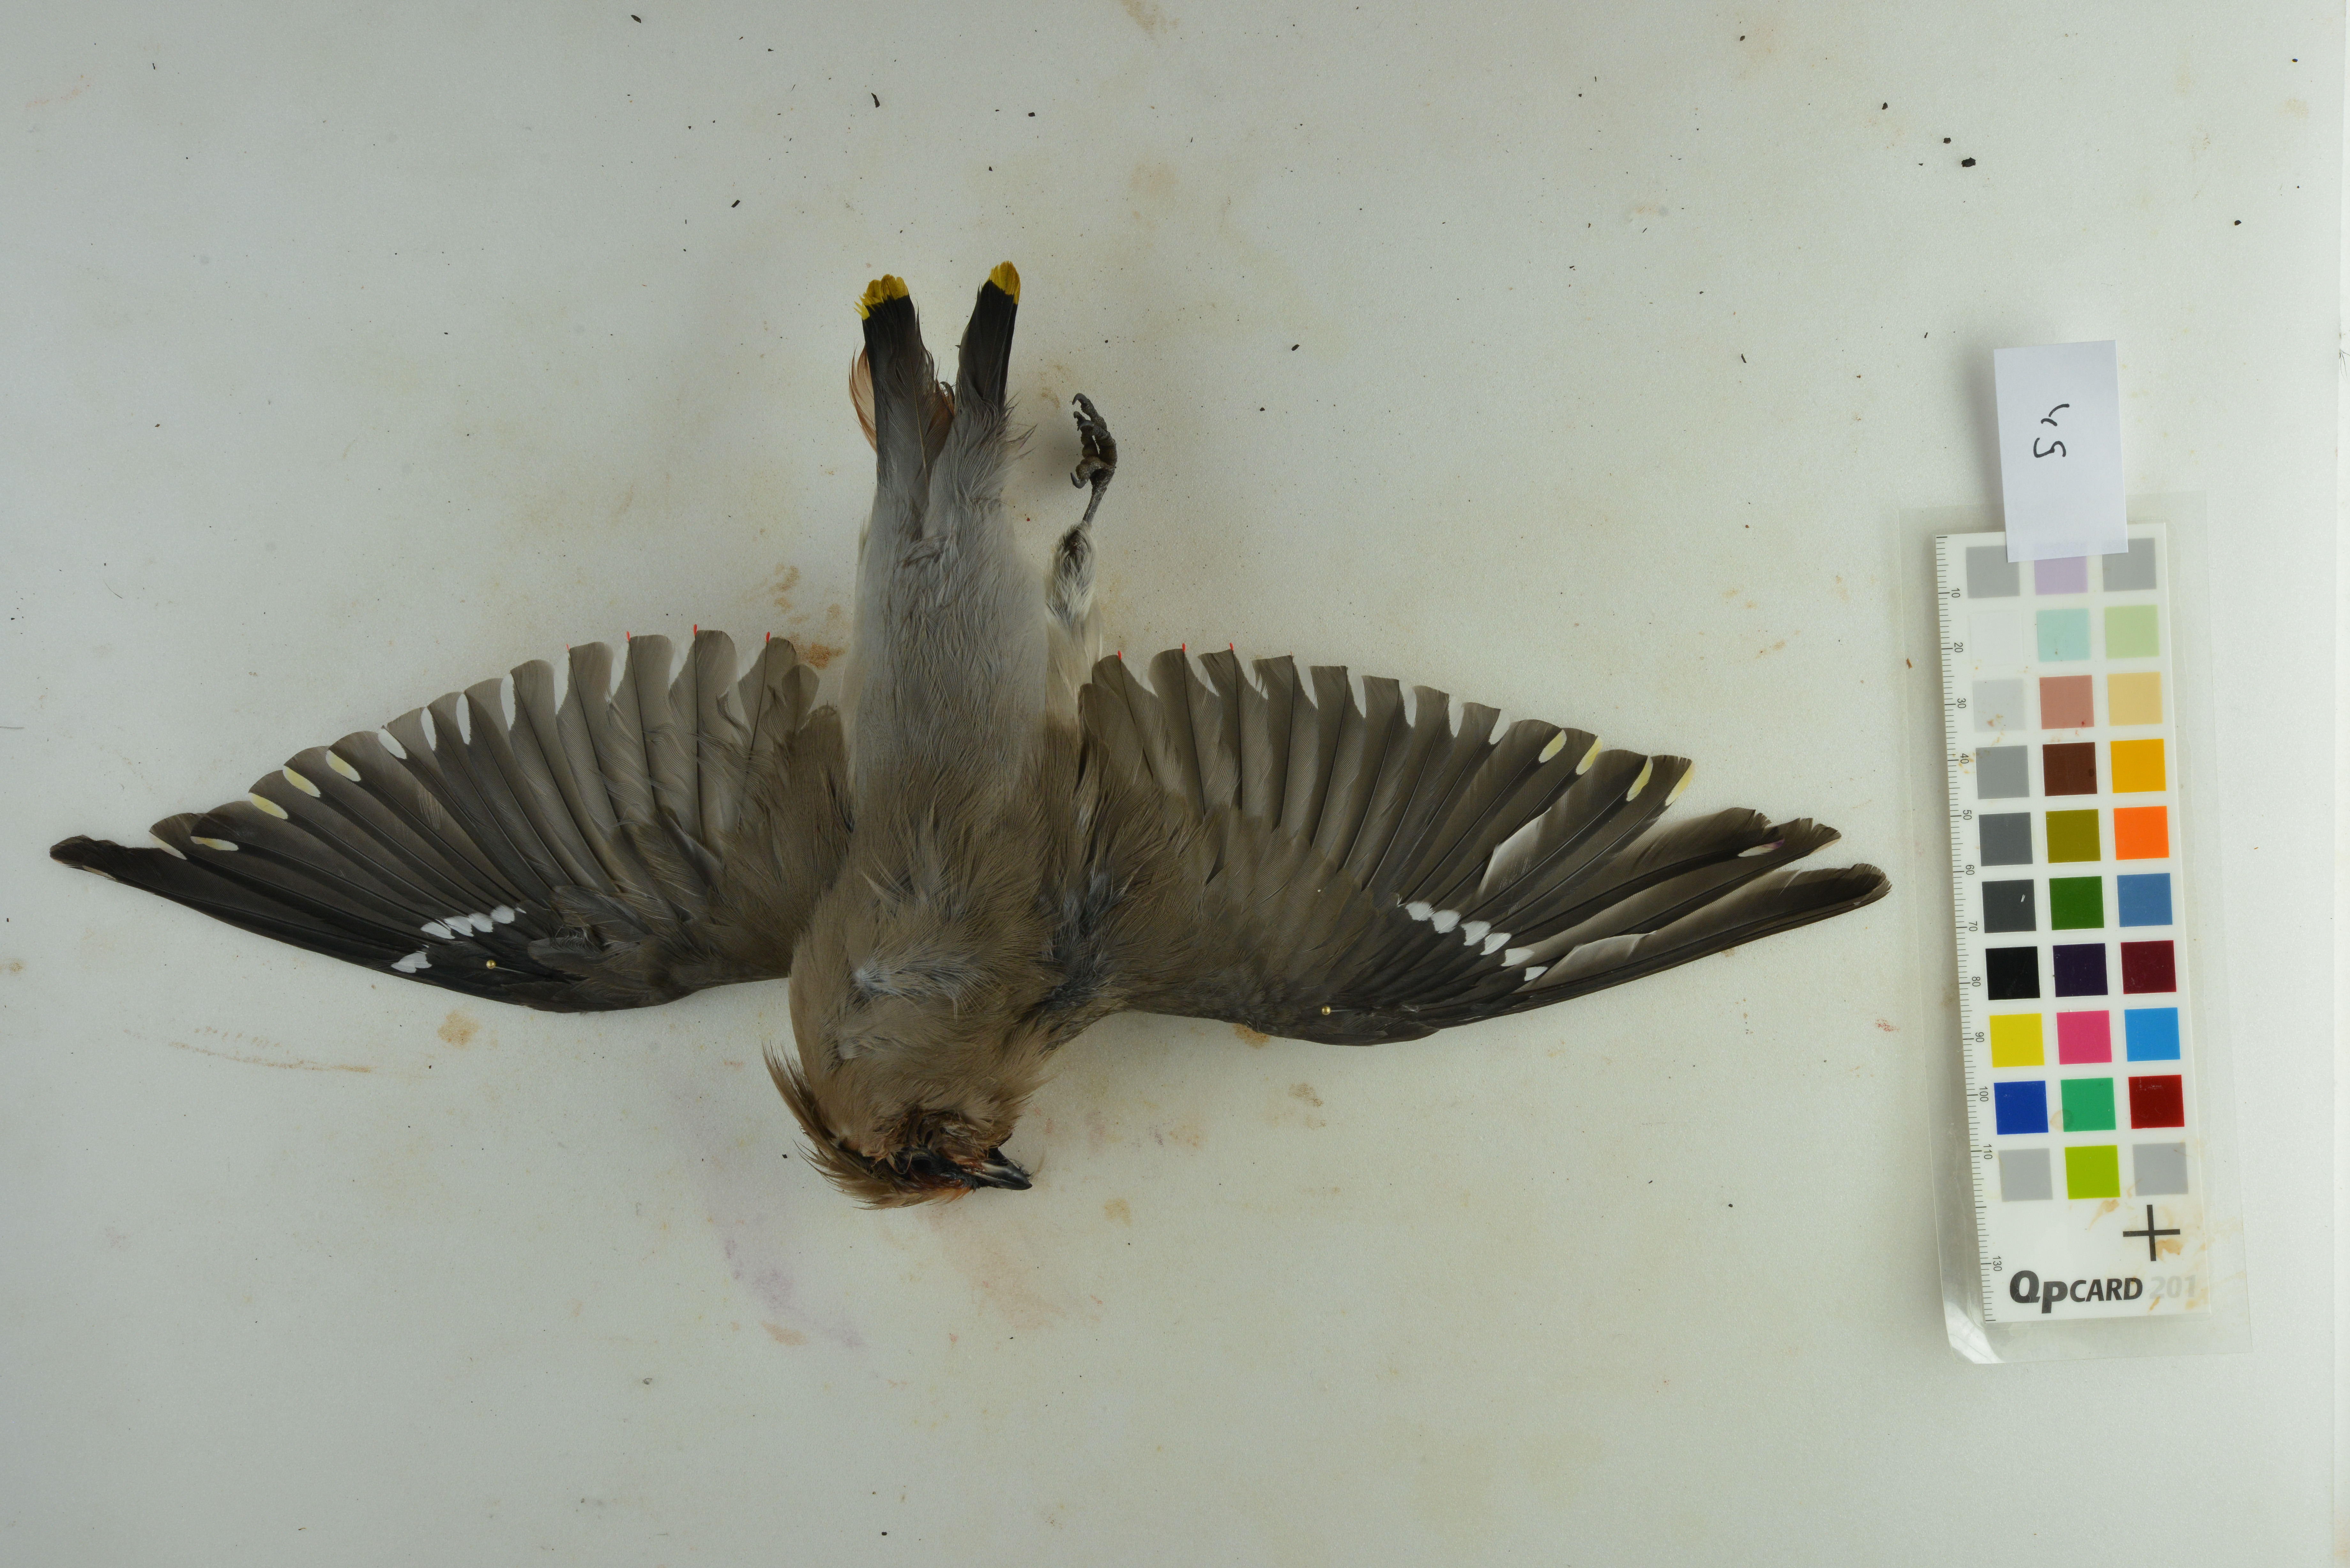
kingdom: Animalia
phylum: Chordata
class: Aves
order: Passeriformes
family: Bombycillidae
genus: Bombycilla
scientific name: Bombycilla garrulus
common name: Bohemian waxwing
